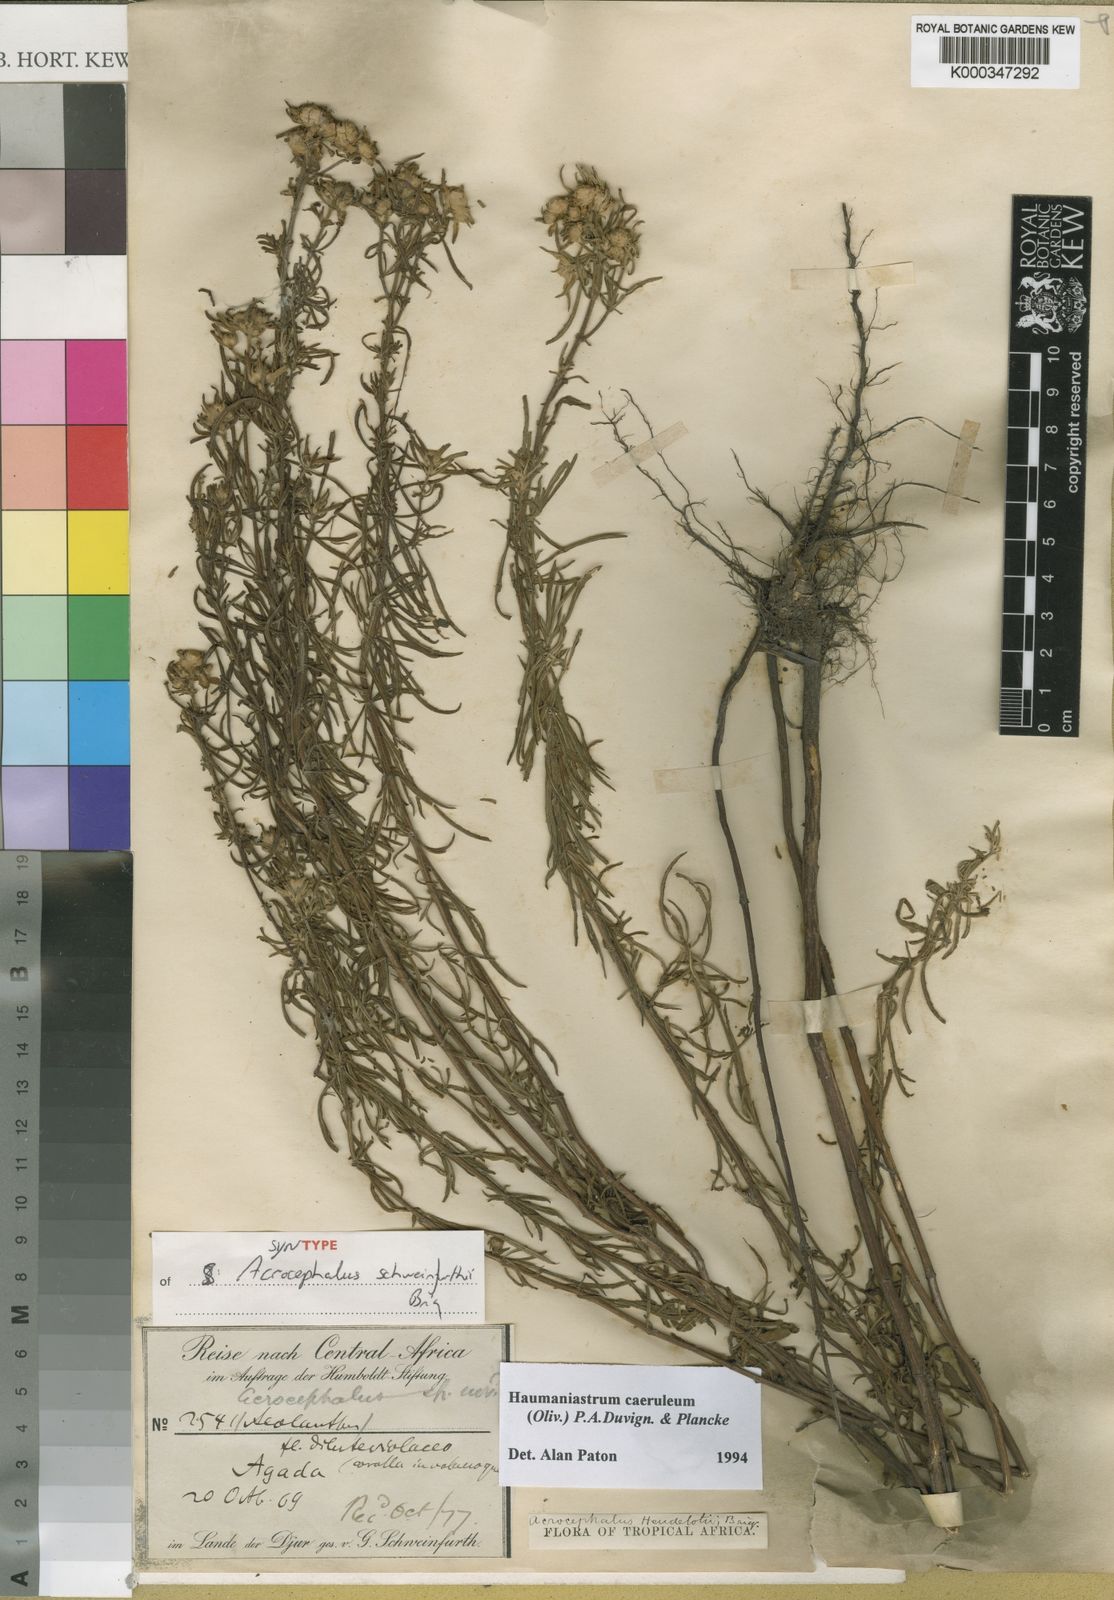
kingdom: Plantae
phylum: Tracheophyta
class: Magnoliopsida
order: Lamiales
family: Lamiaceae
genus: Haumaniastrum
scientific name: Haumaniastrum caeruleum
